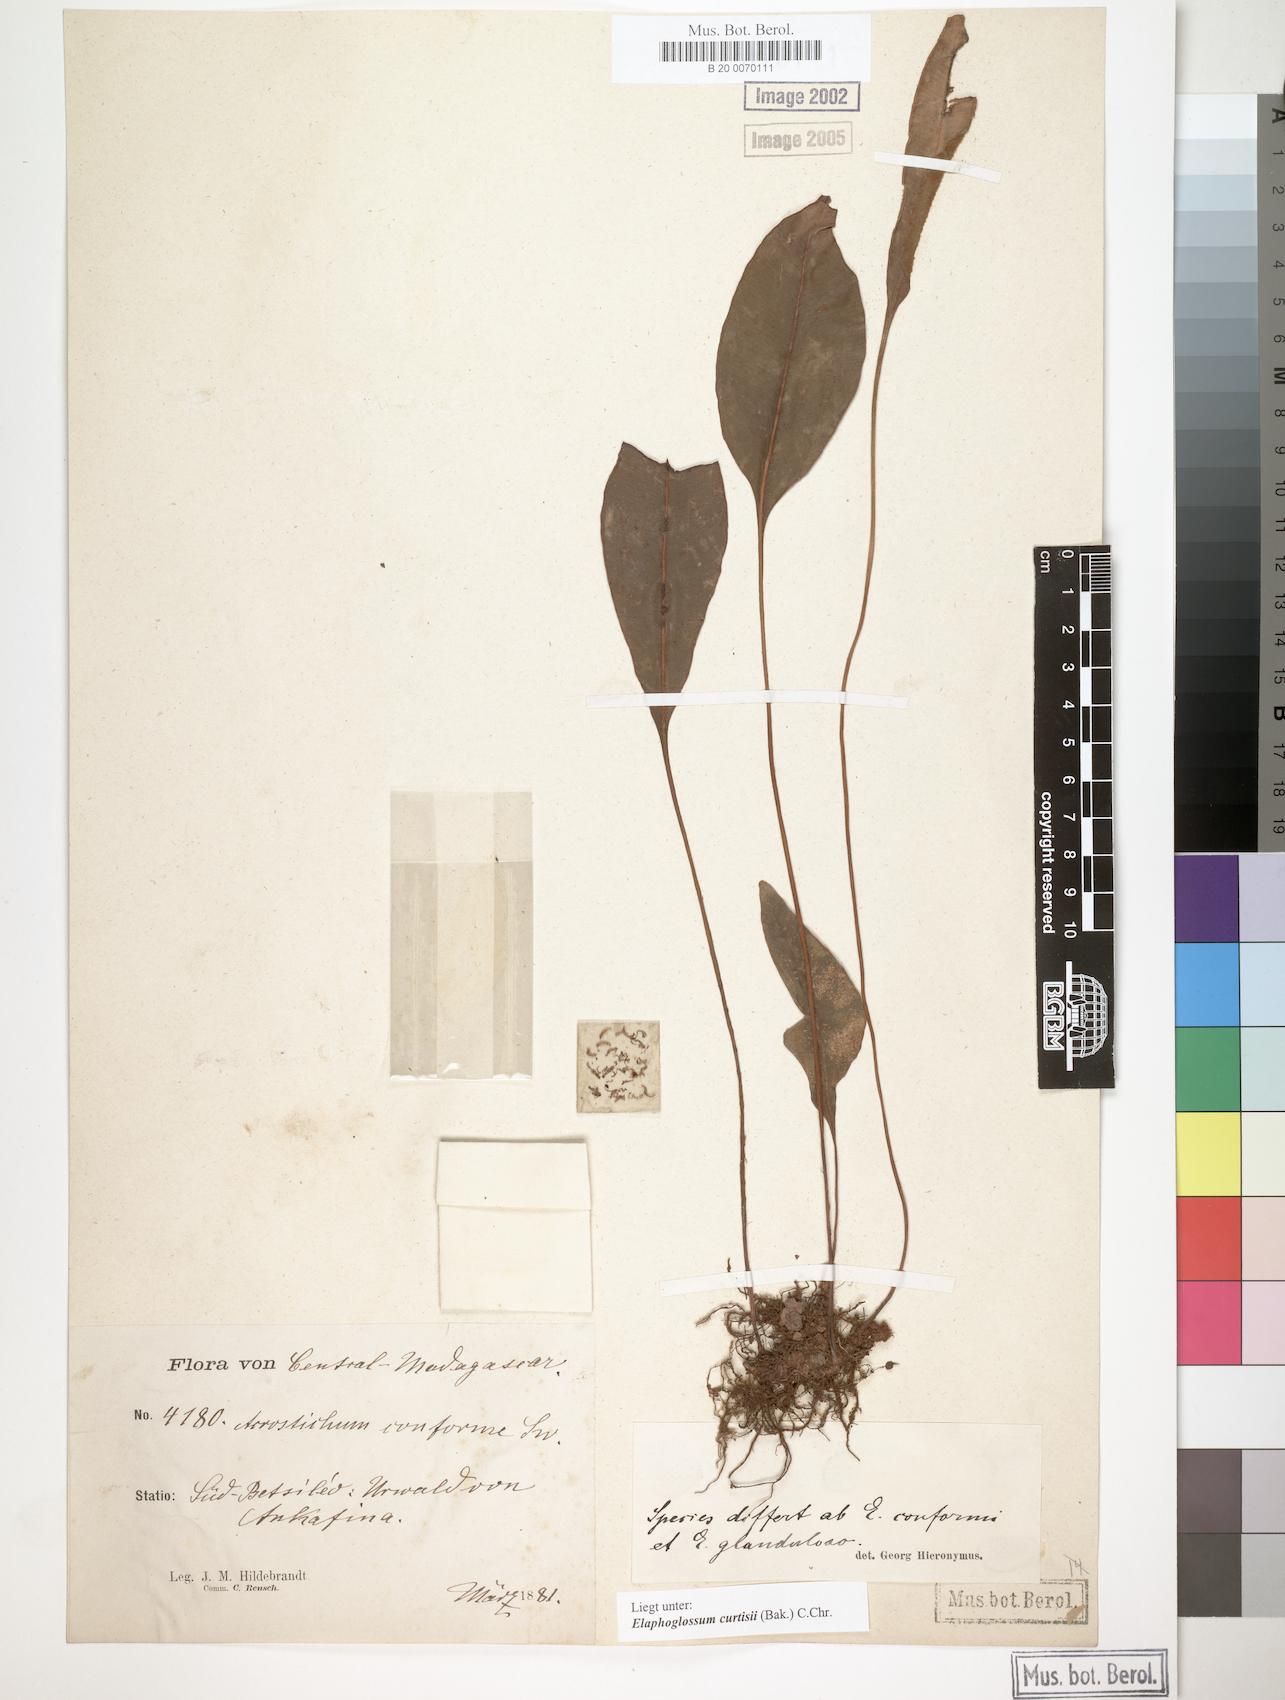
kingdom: Plantae
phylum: Tracheophyta
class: Polypodiopsida
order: Polypodiales
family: Dryopteridaceae
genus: Elaphoglossum
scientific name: Elaphoglossum lepervanchii
